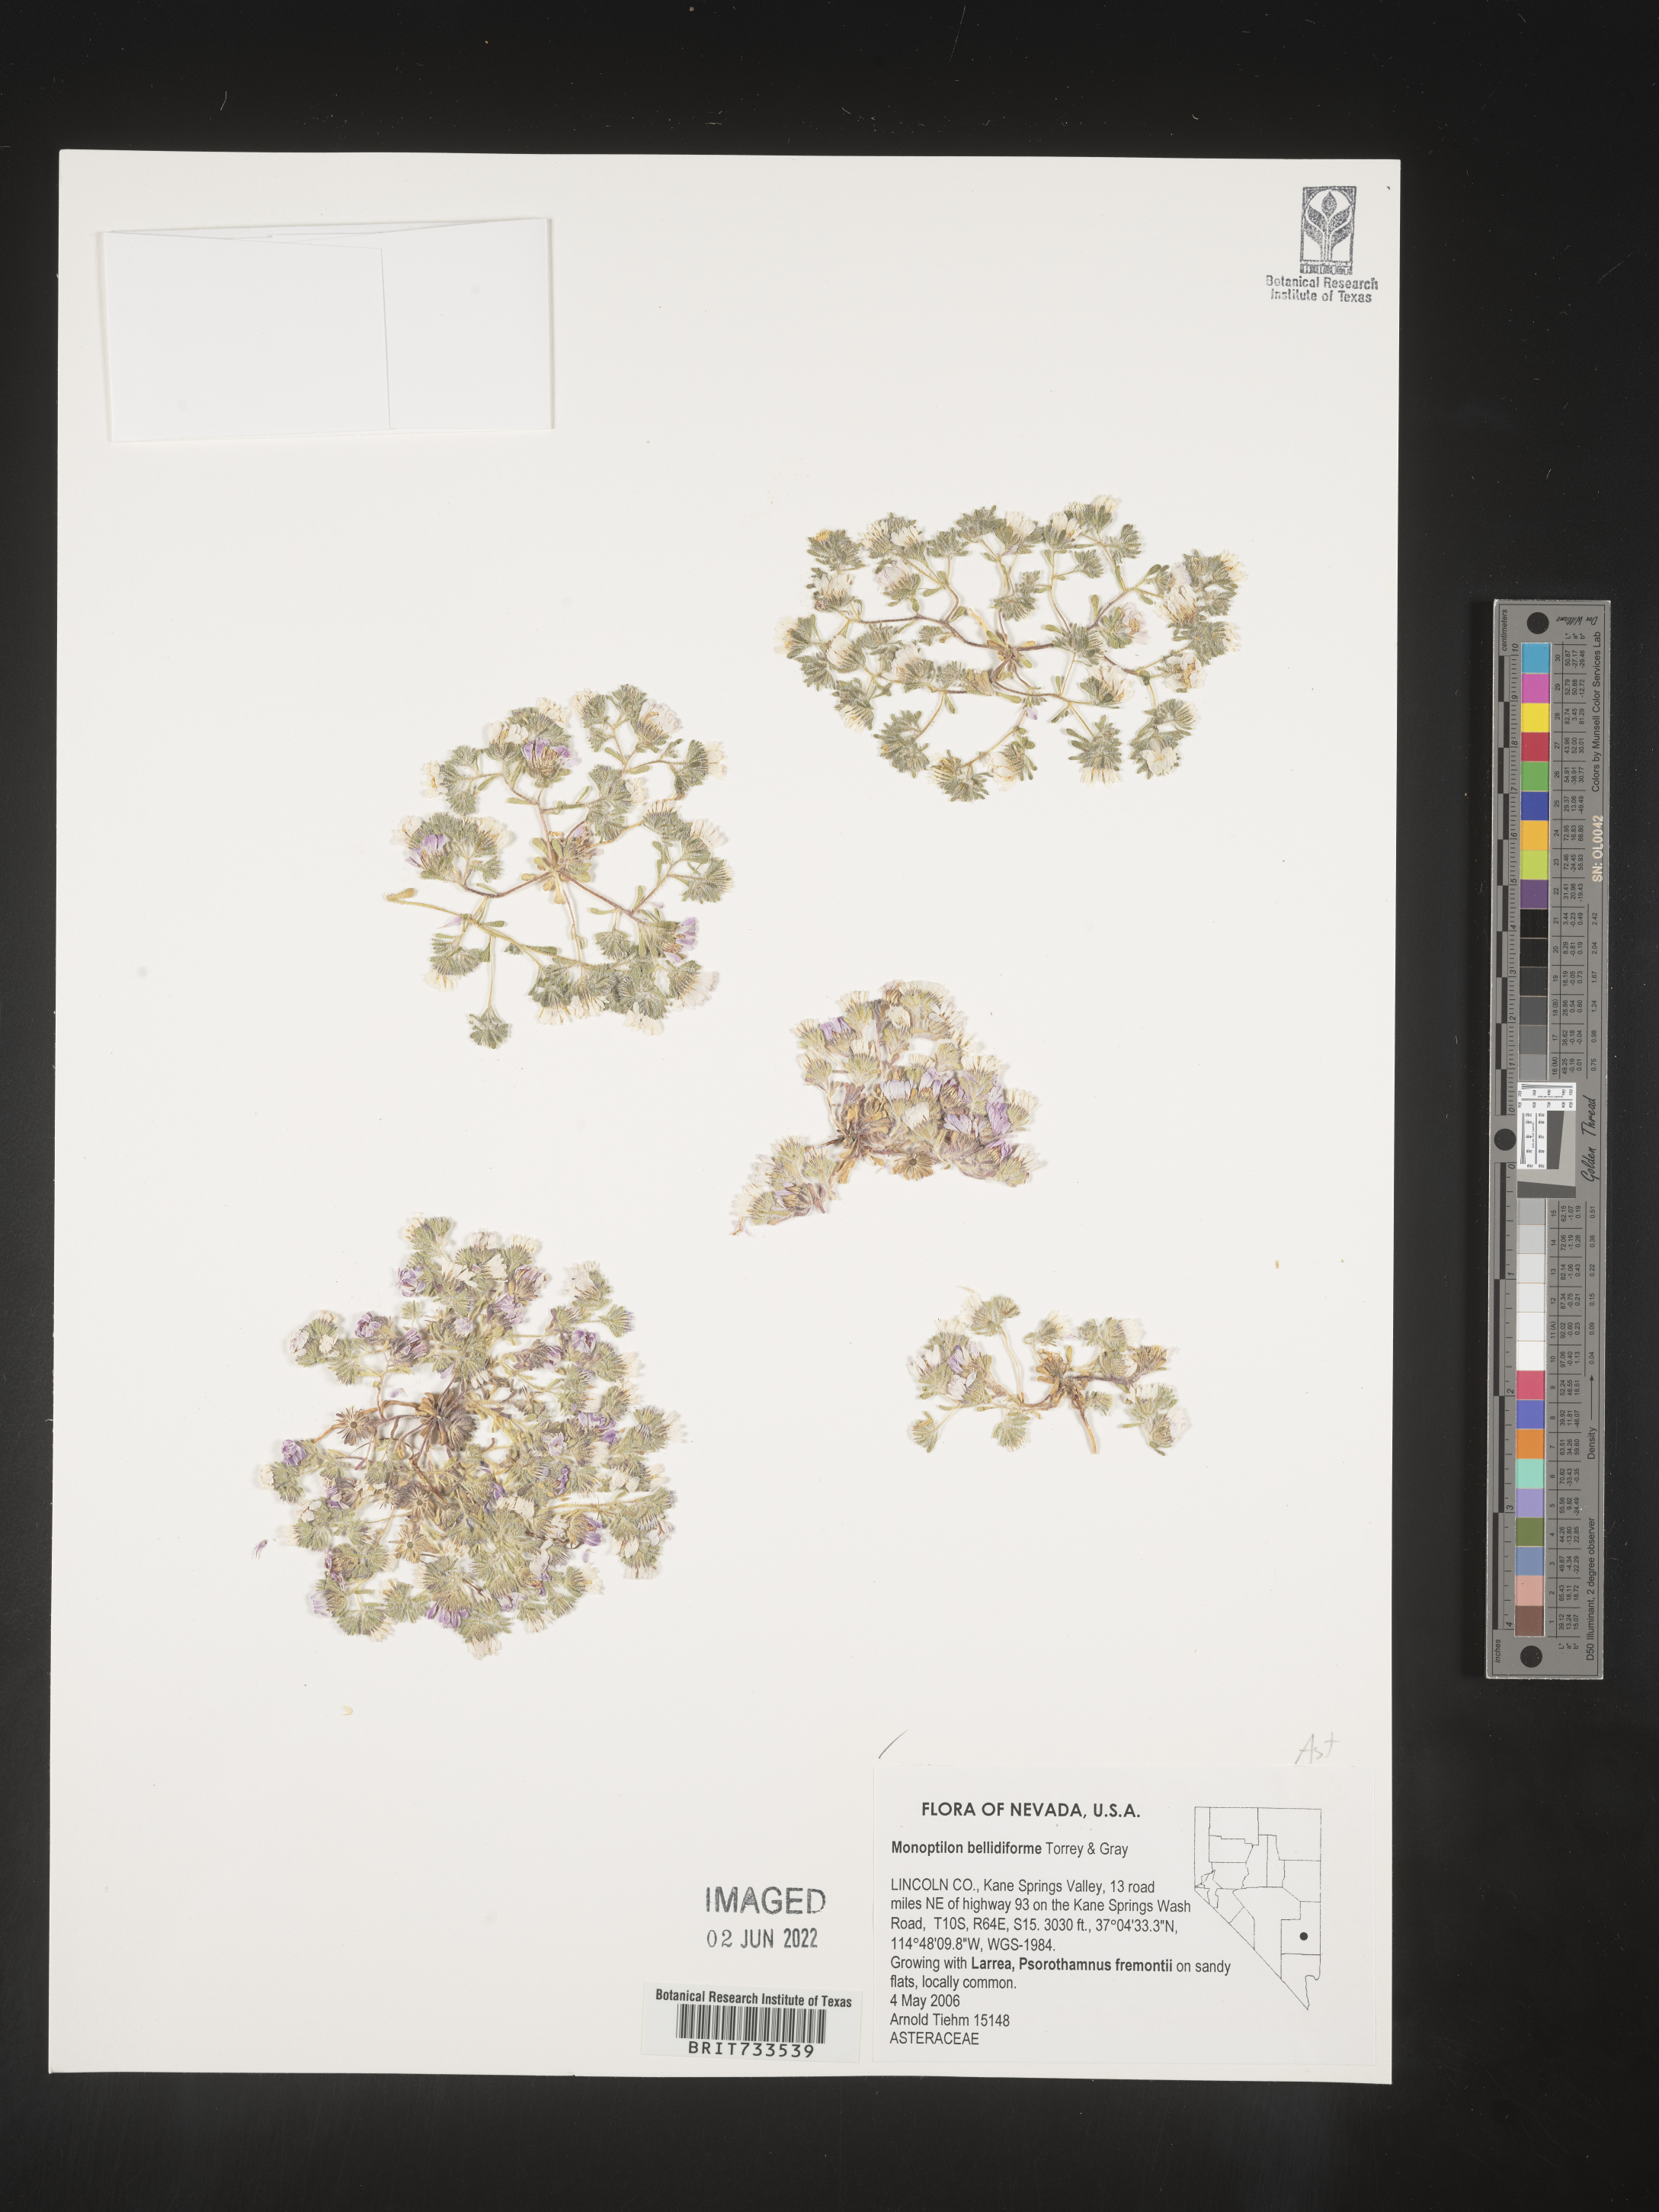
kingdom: Plantae
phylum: Tracheophyta
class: Magnoliopsida
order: Asterales
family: Asteraceae
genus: Monoptilon
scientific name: Monoptilon
